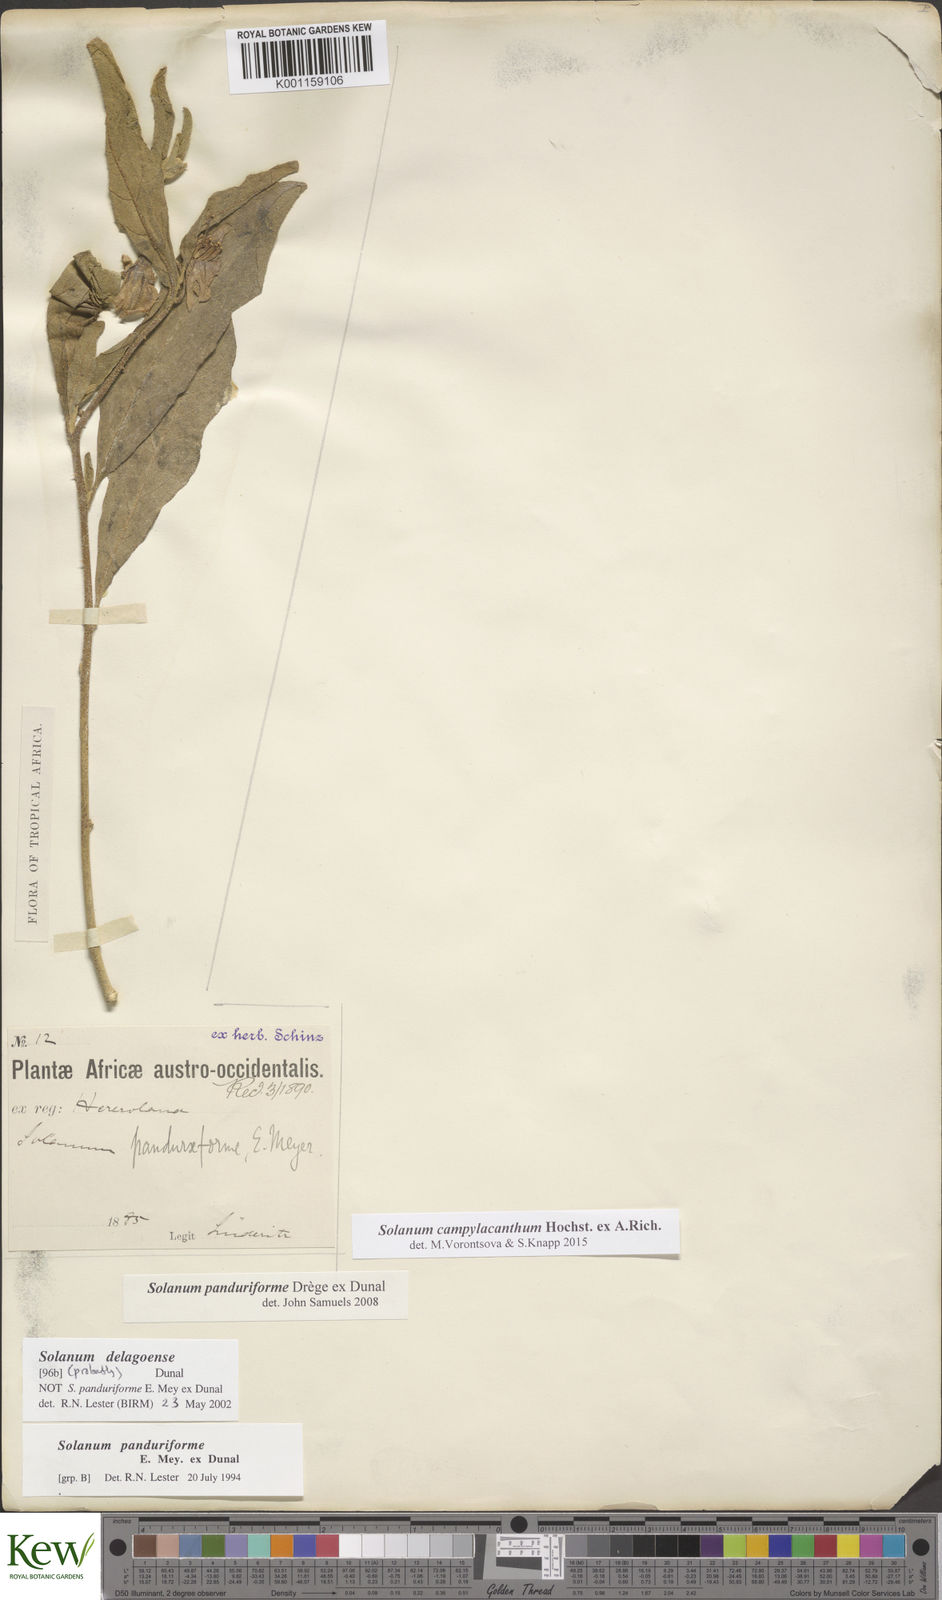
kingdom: Plantae
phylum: Tracheophyta
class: Magnoliopsida
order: Solanales
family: Solanaceae
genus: Solanum
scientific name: Solanum campylacanthum
